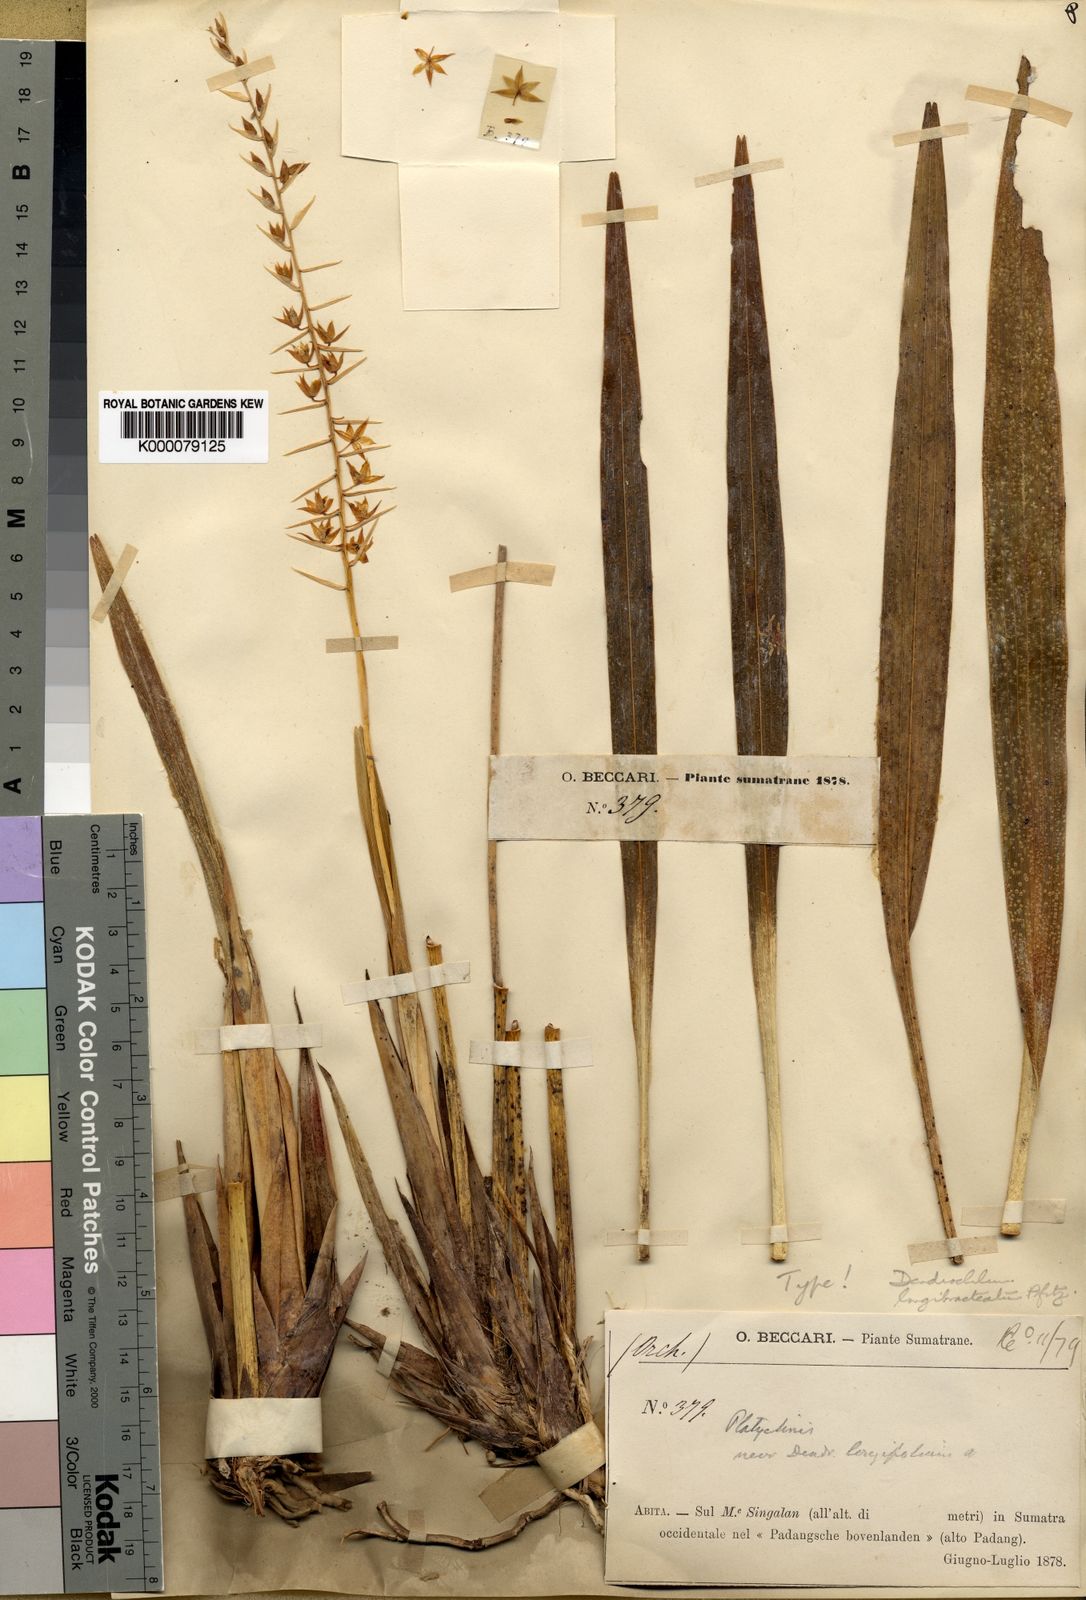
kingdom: Plantae
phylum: Tracheophyta
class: Liliopsida
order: Asparagales
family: Orchidaceae
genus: Coelogyne
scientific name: Coelogyne histrix
